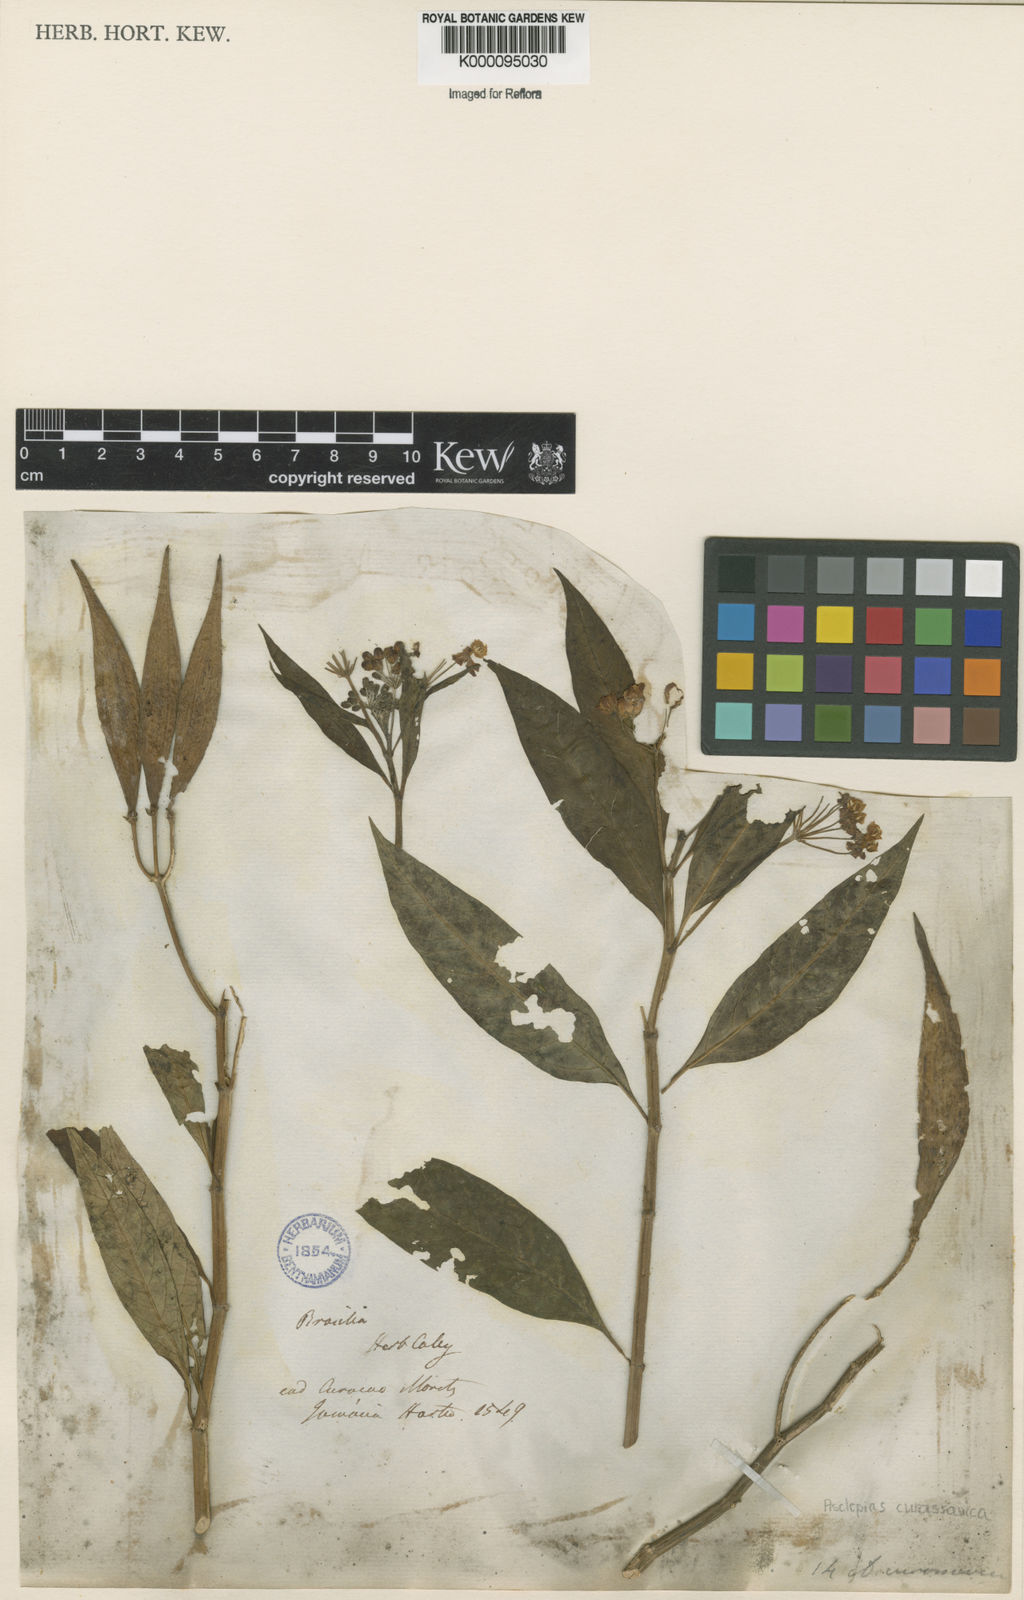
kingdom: Plantae
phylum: Tracheophyta
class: Magnoliopsida
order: Gentianales
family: Apocynaceae
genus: Asclepias
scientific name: Asclepias curassavica
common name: Bloodflower
